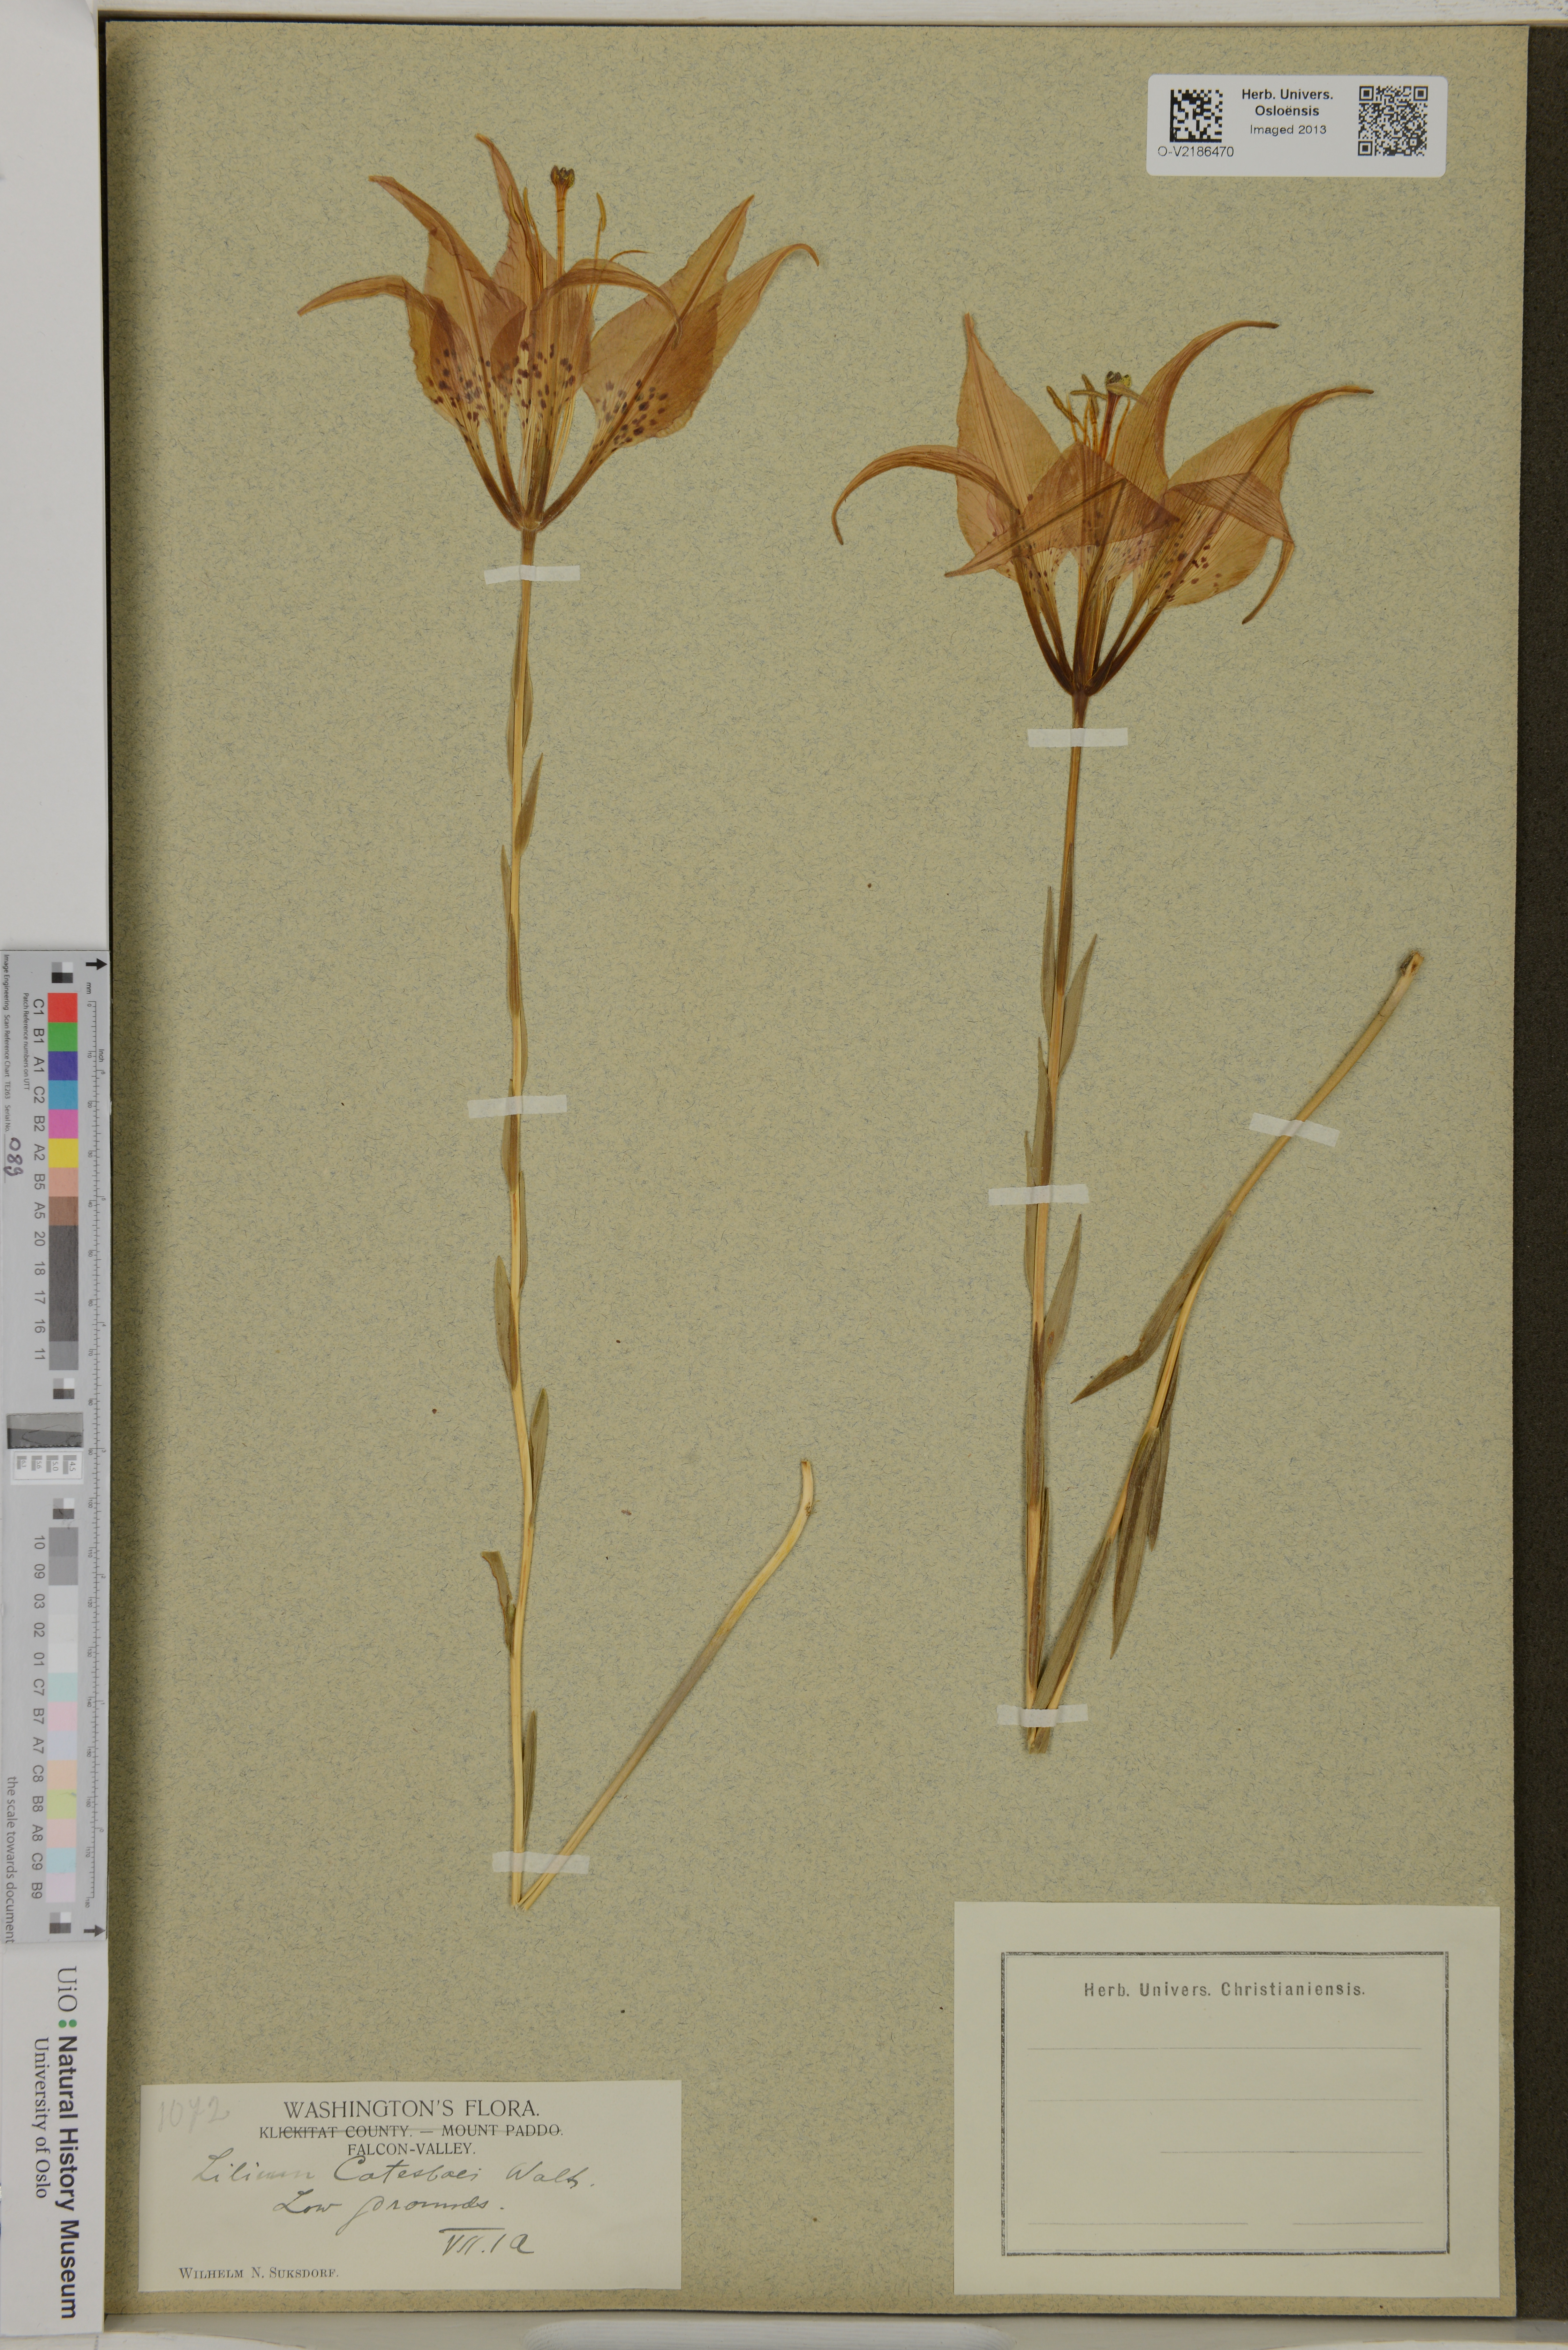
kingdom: Plantae
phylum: Tracheophyta
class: Liliopsida
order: Liliales
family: Liliaceae
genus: Lilium
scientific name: Lilium catesbaei
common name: Catesby's lily
